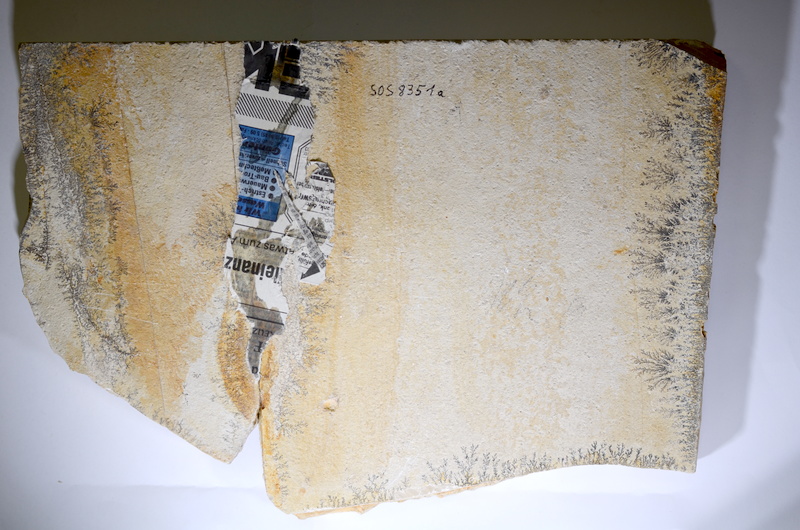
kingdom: Animalia
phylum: Chordata
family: Aspidorhynchidae
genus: Aspidorhynchus
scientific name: Aspidorhynchus acutirostris
